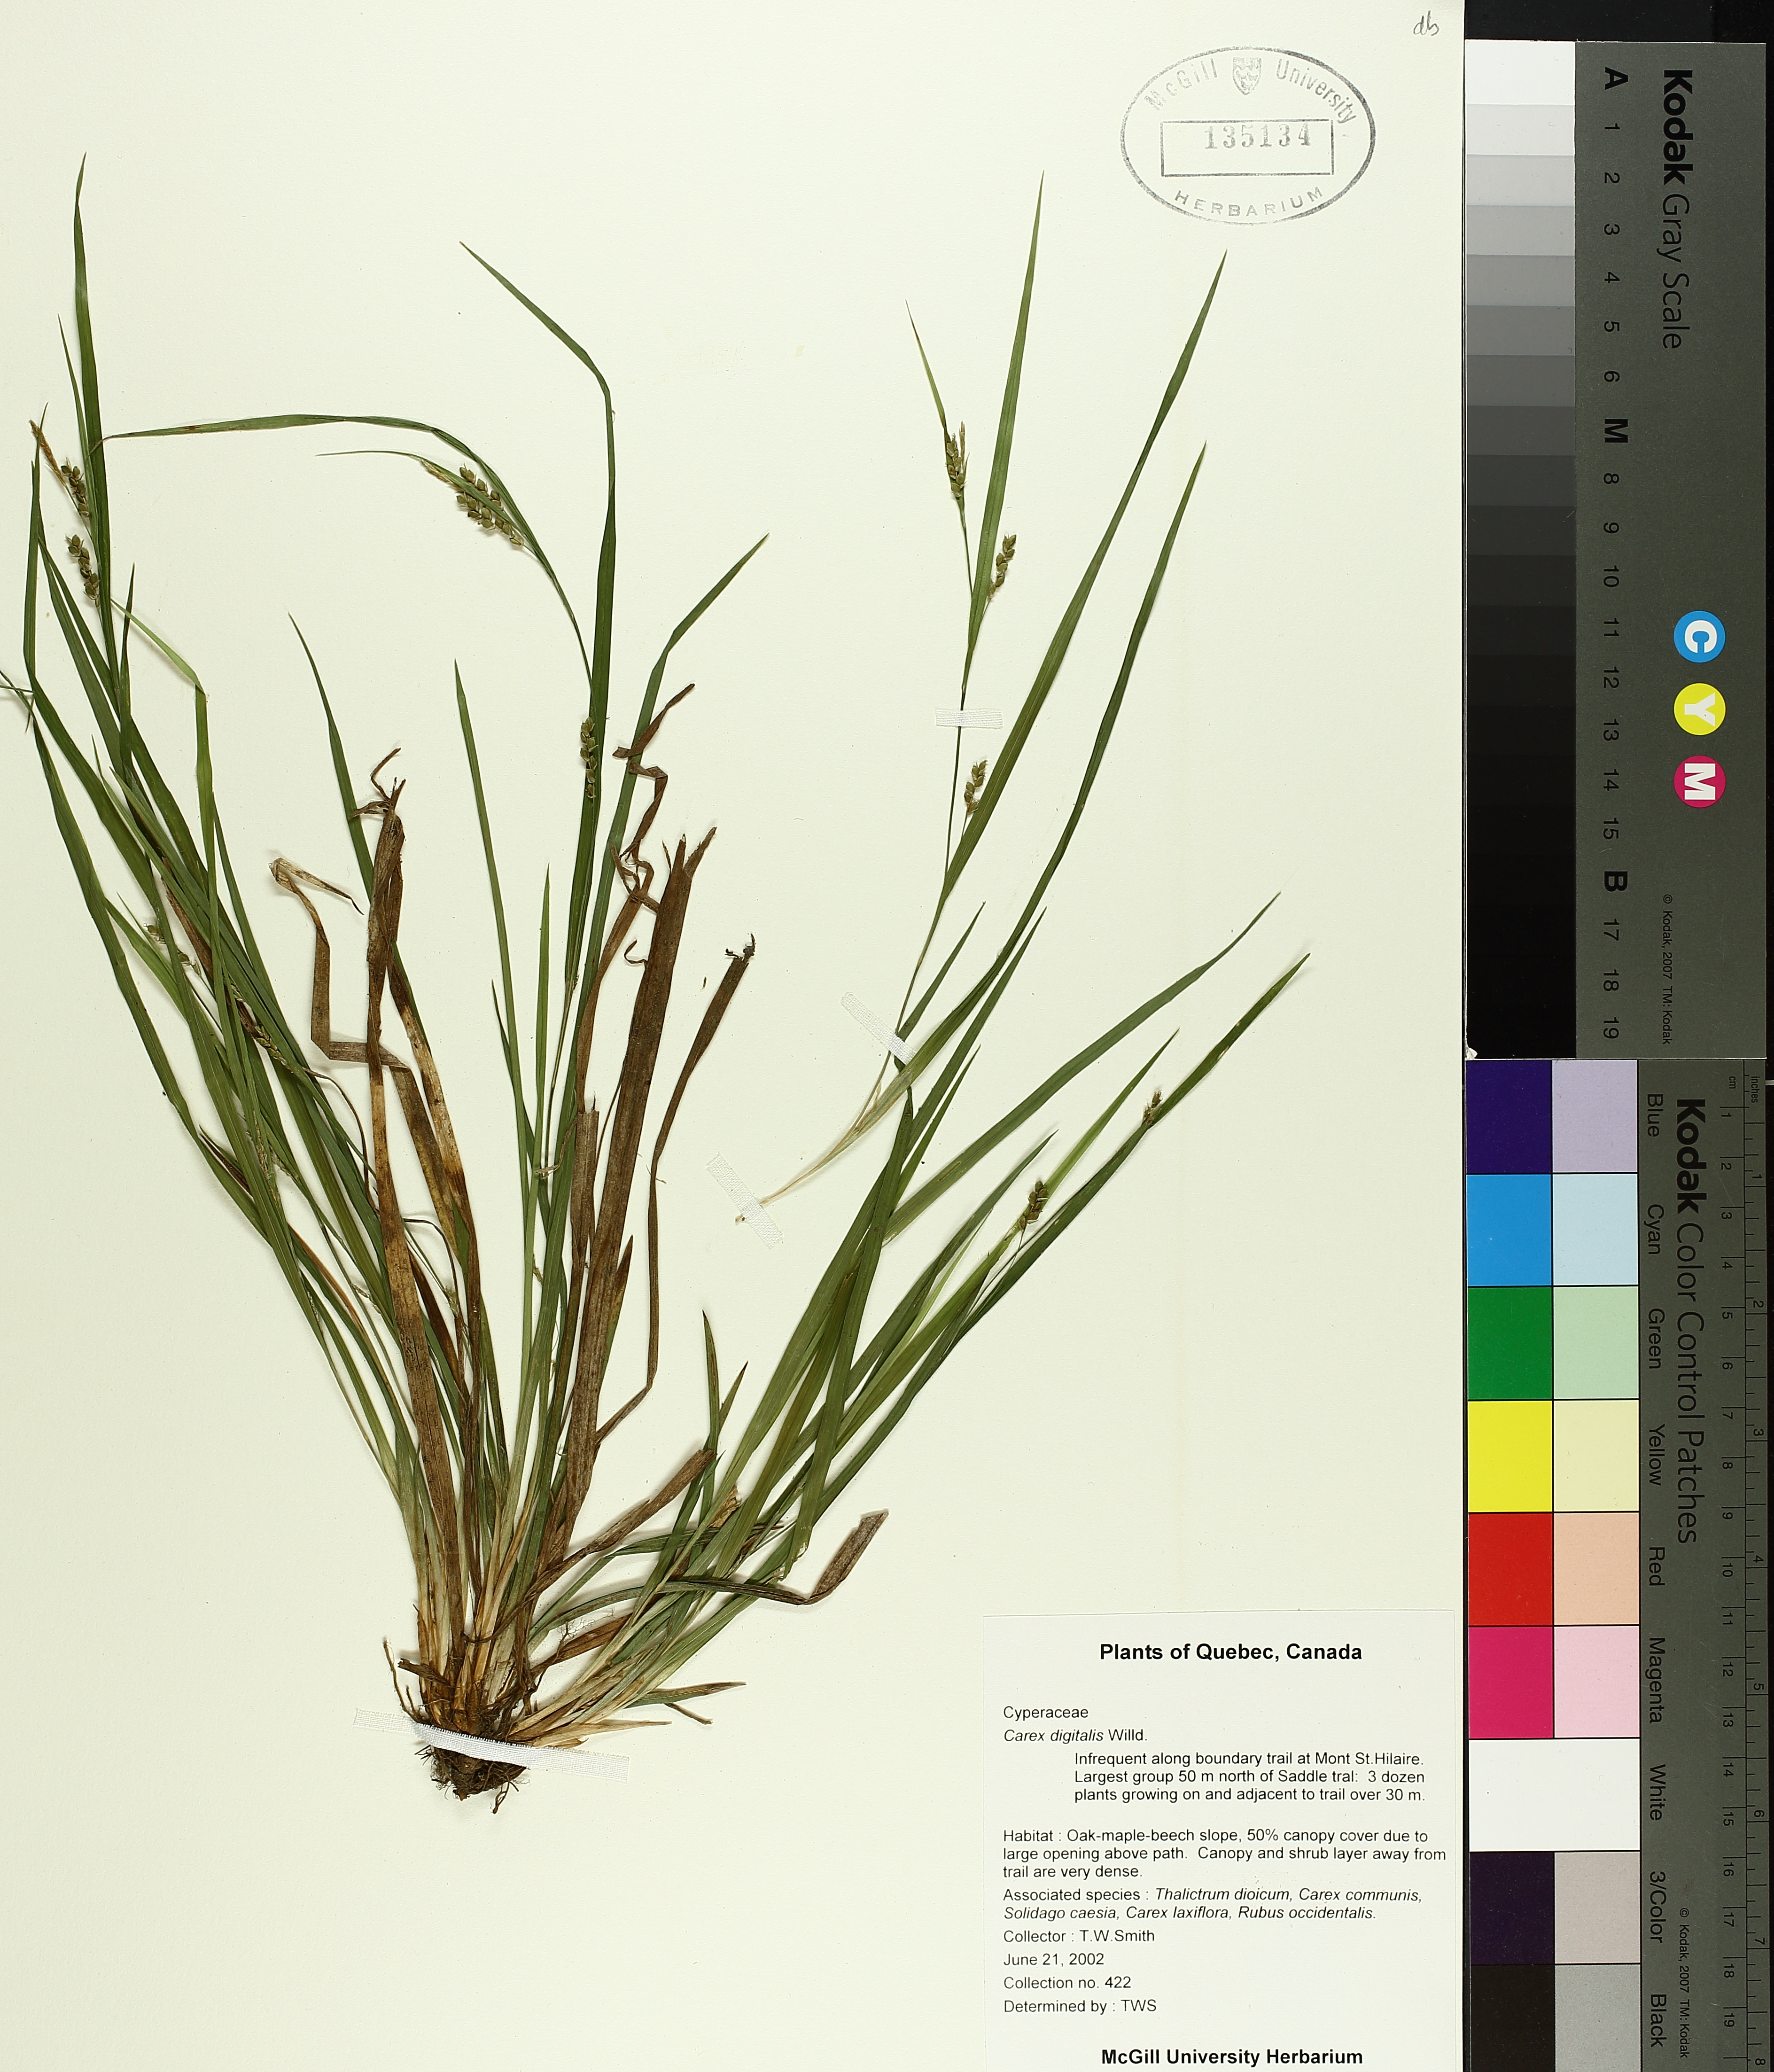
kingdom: Plantae
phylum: Tracheophyta
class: Liliopsida
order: Poales
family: Cyperaceae
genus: Carex
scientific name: Carex digitalis
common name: Slender wood sedge
